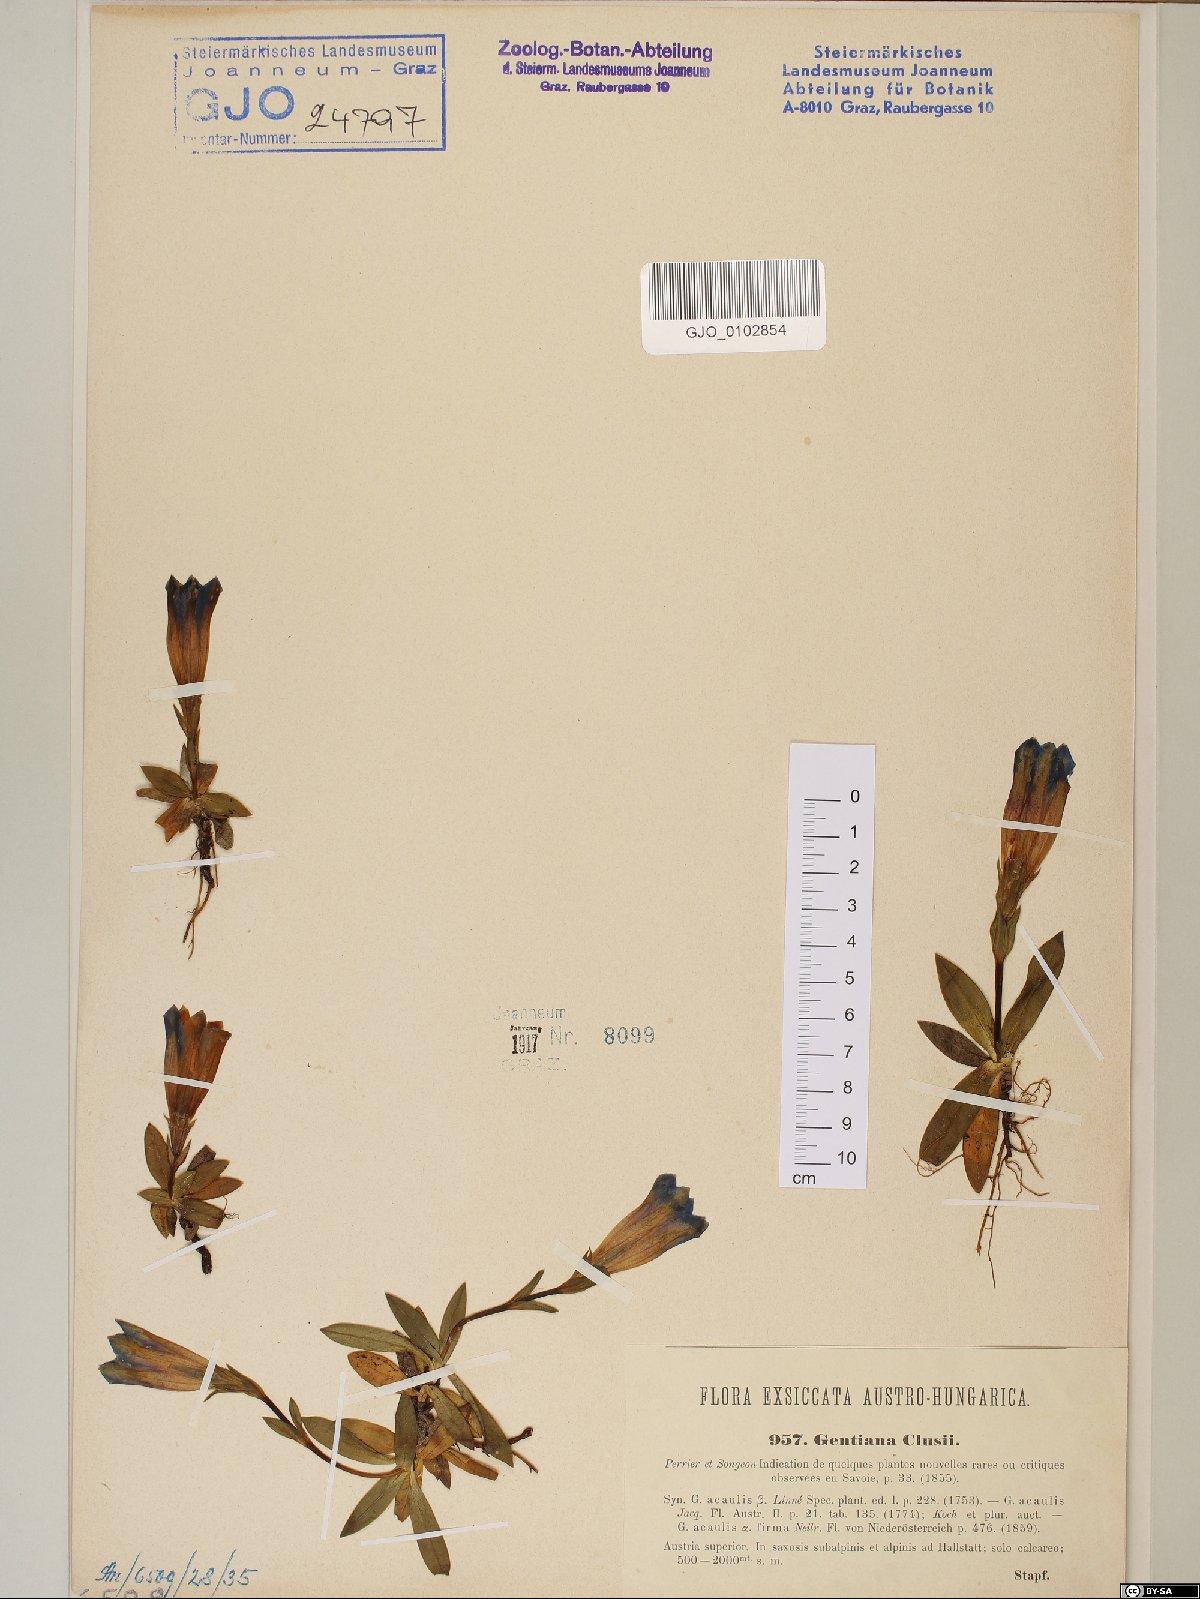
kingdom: Plantae
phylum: Tracheophyta
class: Magnoliopsida
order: Gentianales
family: Gentianaceae
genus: Gentiana
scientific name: Gentiana clusii
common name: Trumpet gentian
